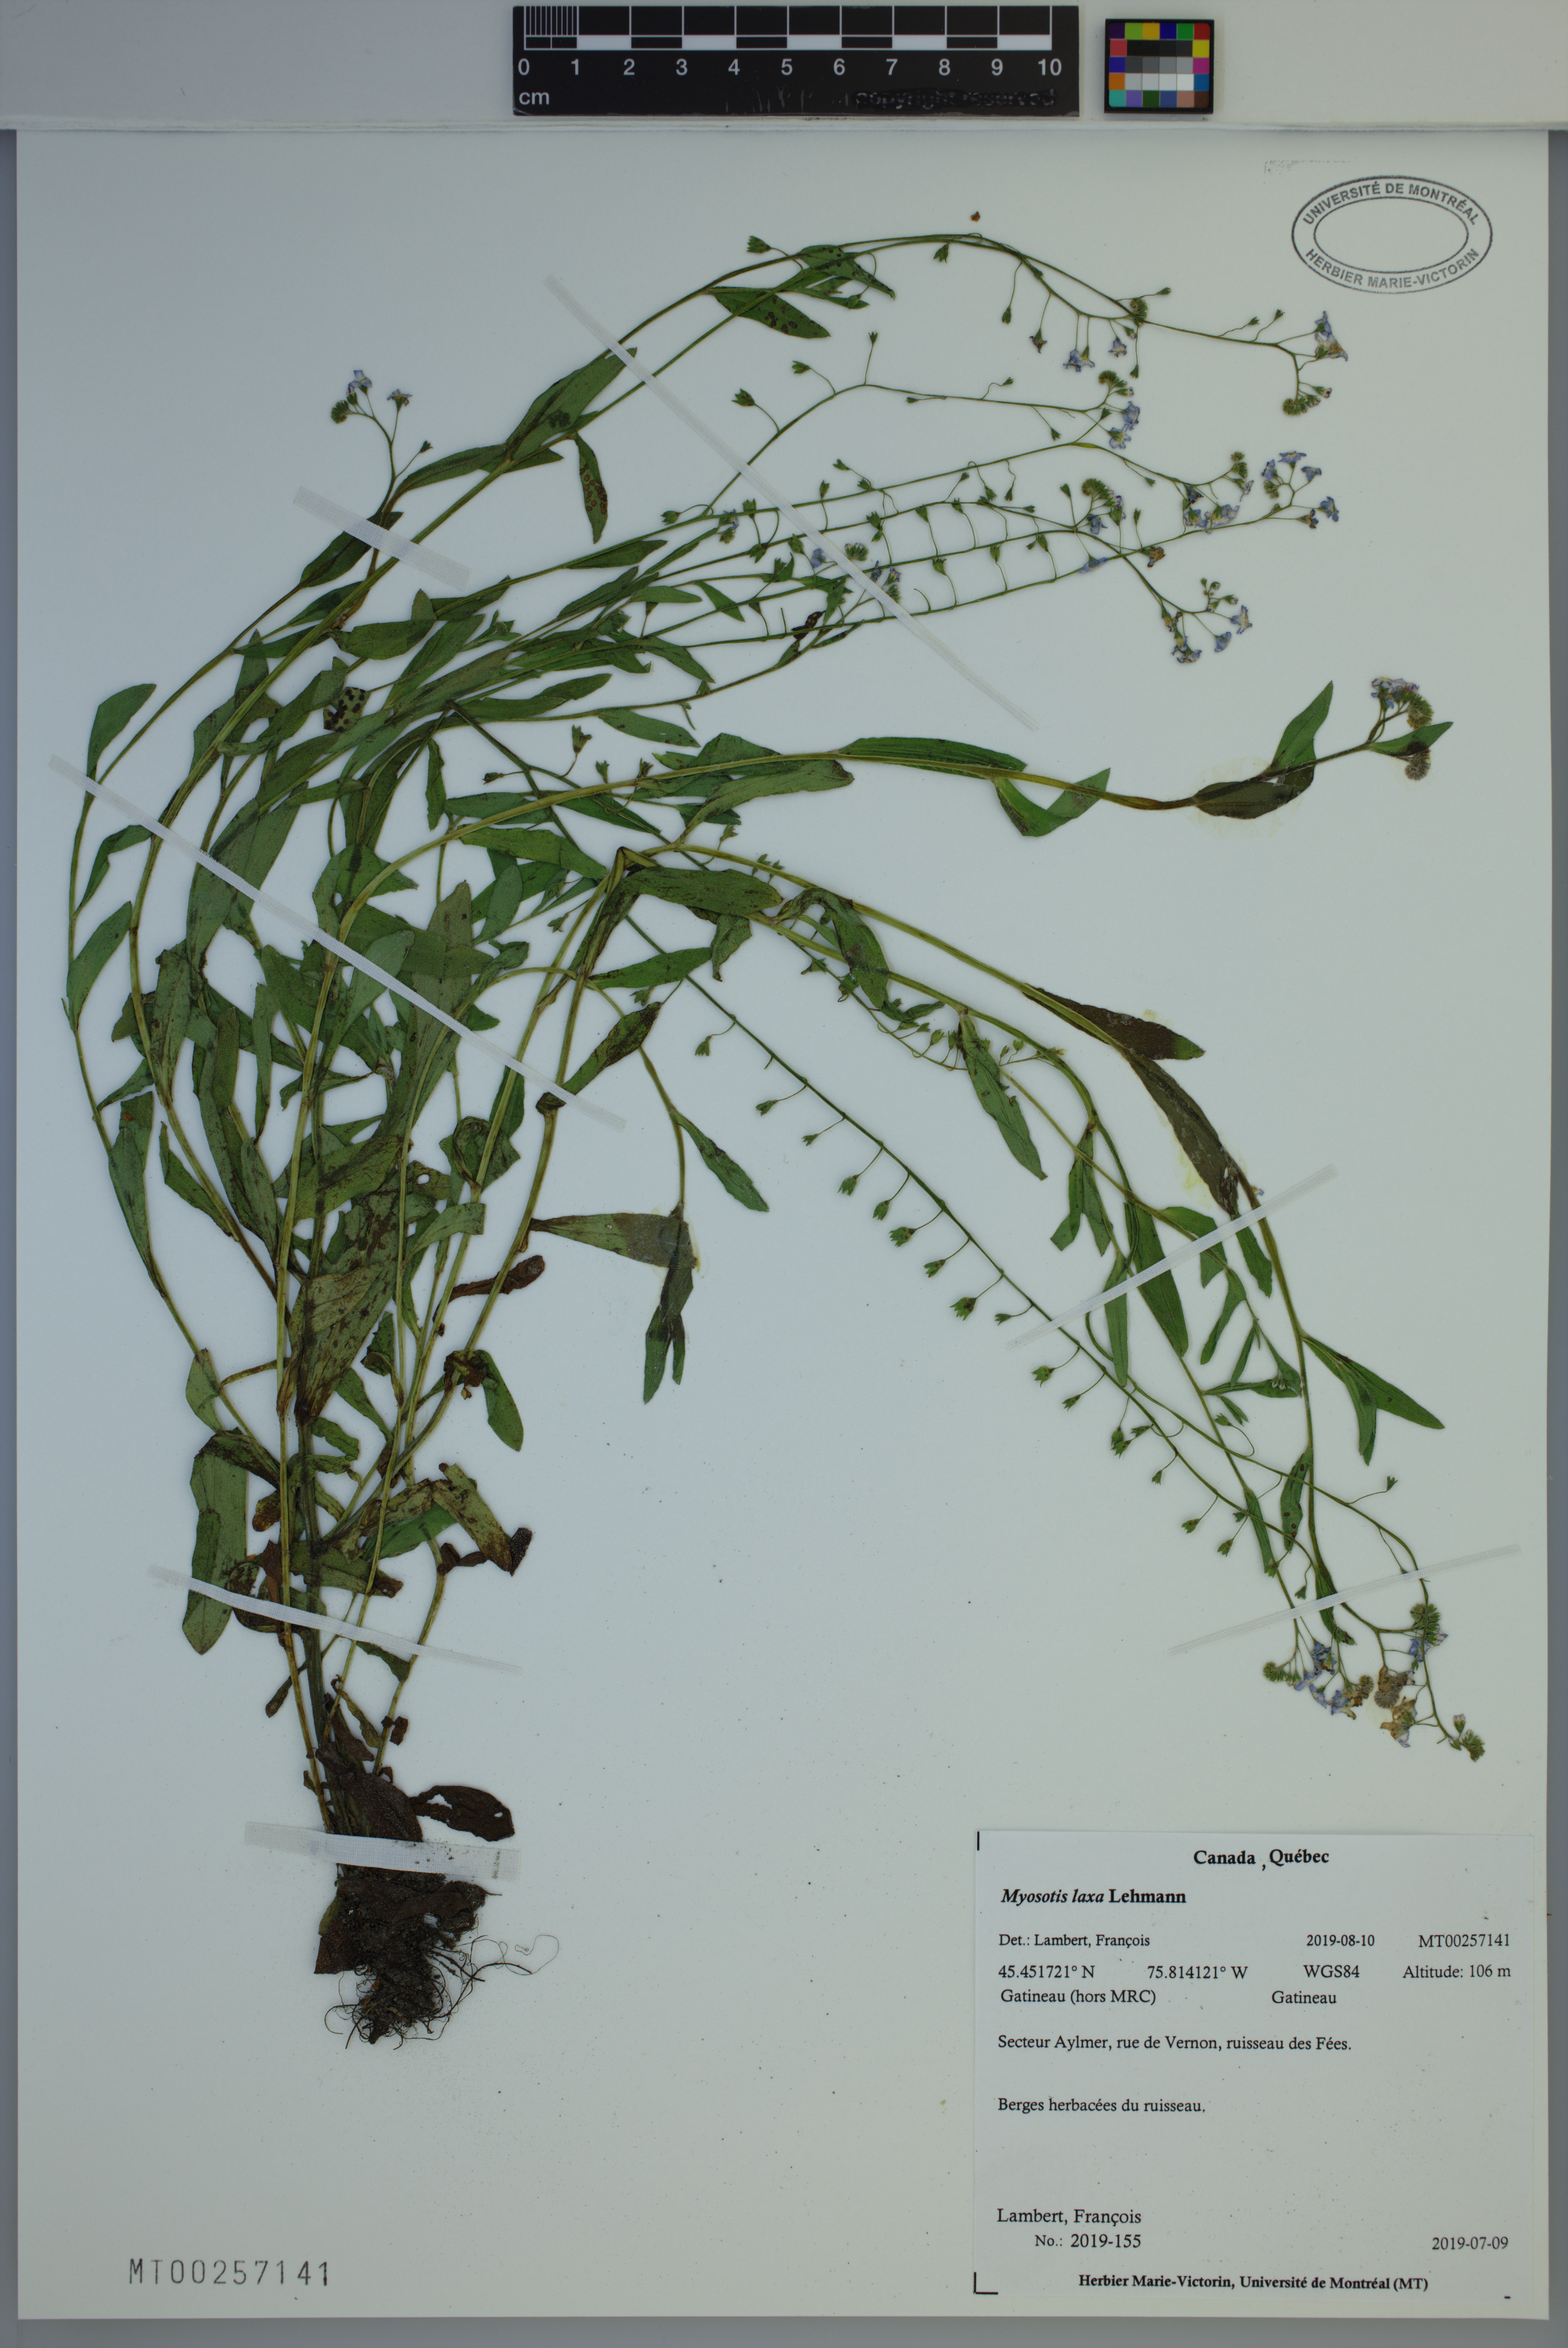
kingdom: Plantae
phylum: Tracheophyta
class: Magnoliopsida
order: Boraginales
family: Boraginaceae
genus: Myosotis
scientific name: Myosotis laxa
